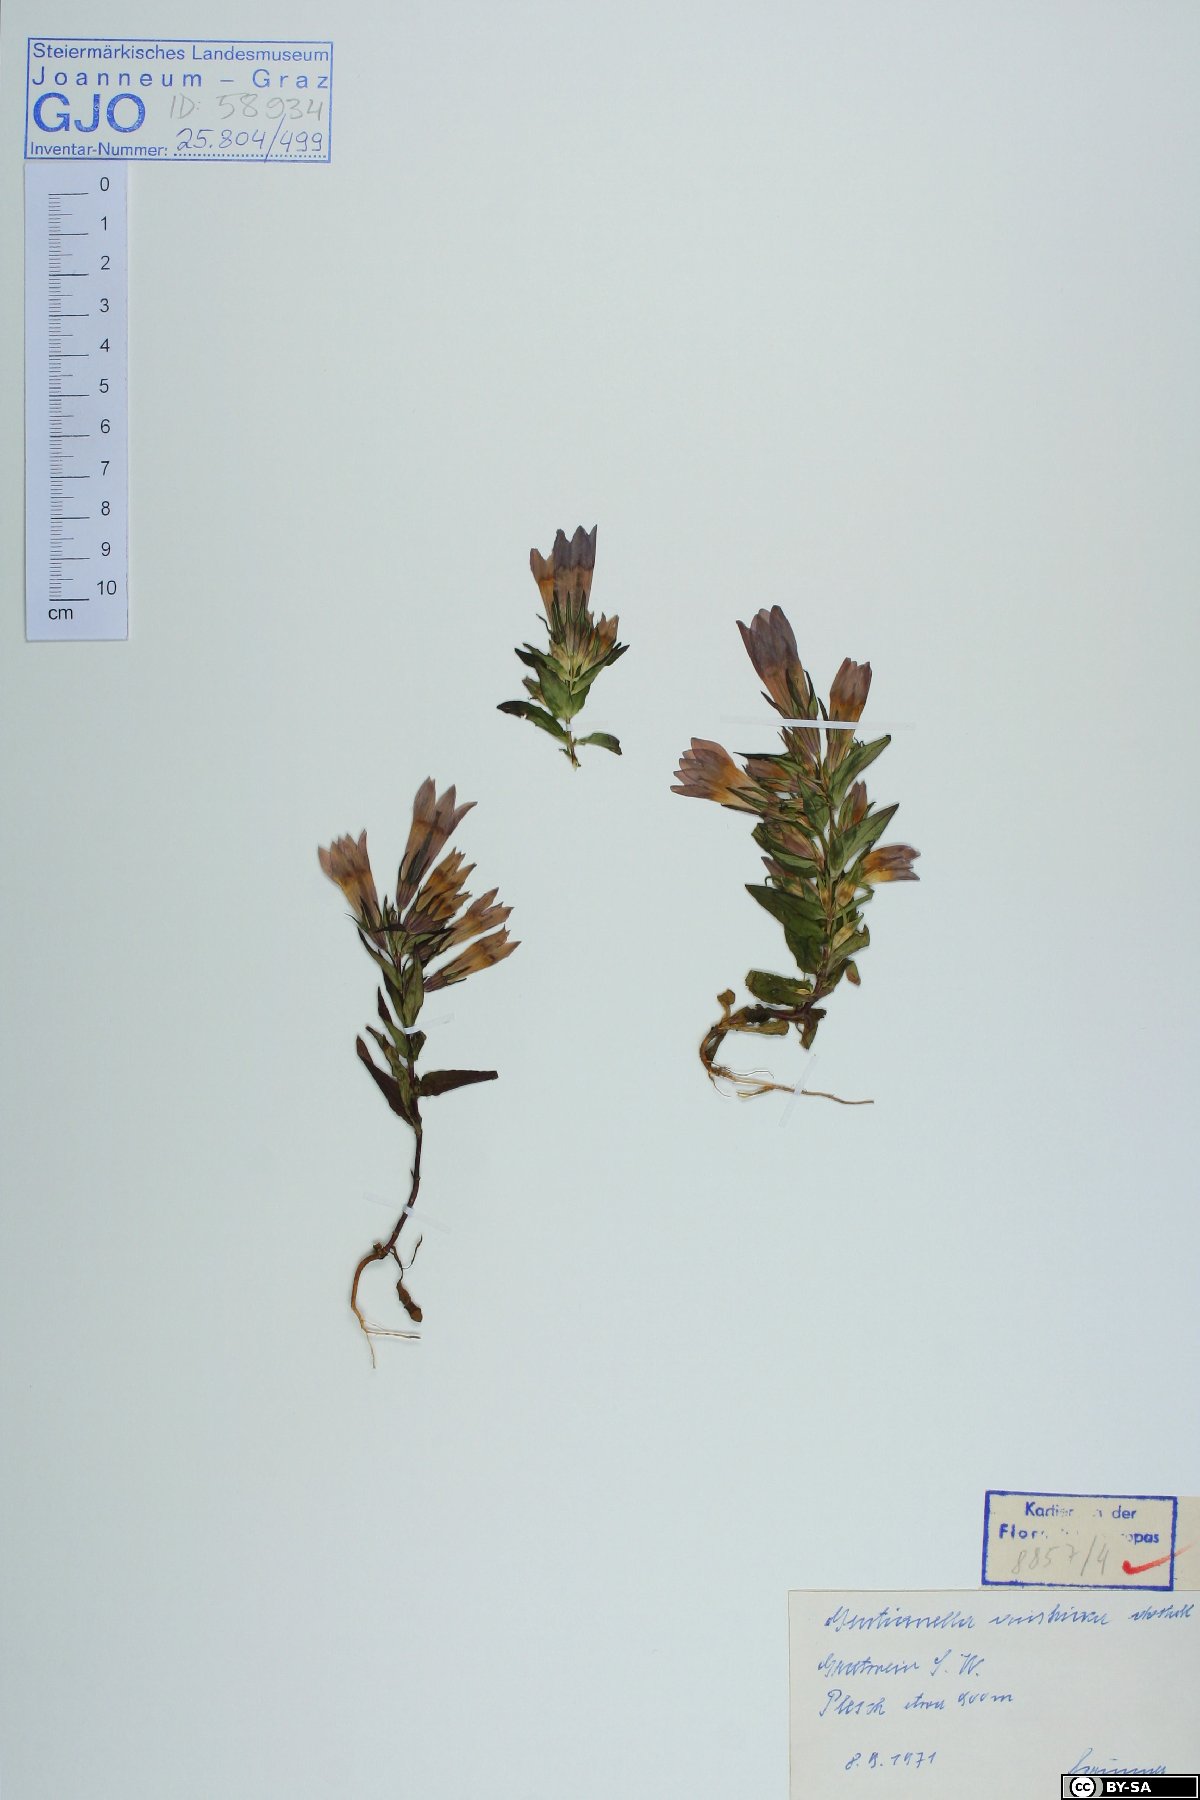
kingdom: Plantae
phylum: Tracheophyta
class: Magnoliopsida
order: Gentianales
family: Gentianaceae
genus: Gentianella
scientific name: Gentianella austriaca
